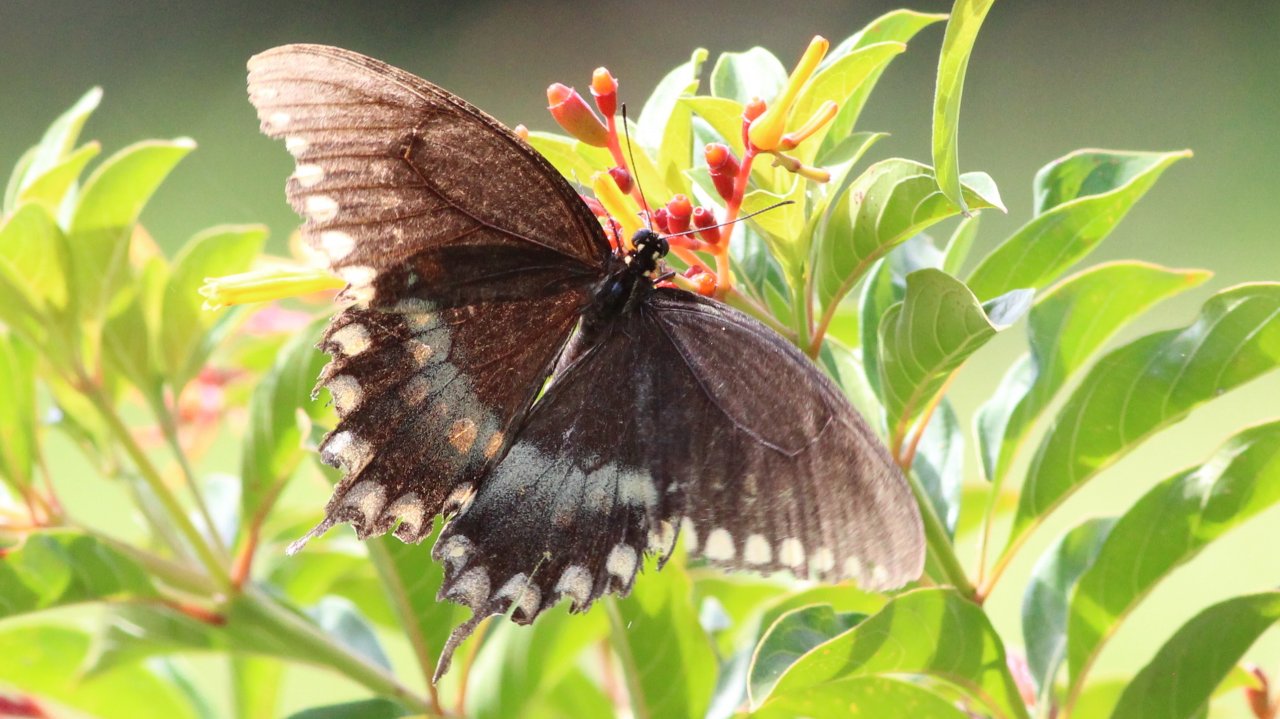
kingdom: Animalia
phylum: Arthropoda
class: Insecta
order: Lepidoptera
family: Papilionidae
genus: Pterourus
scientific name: Pterourus troilus
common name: Spicebush Swallowtail
